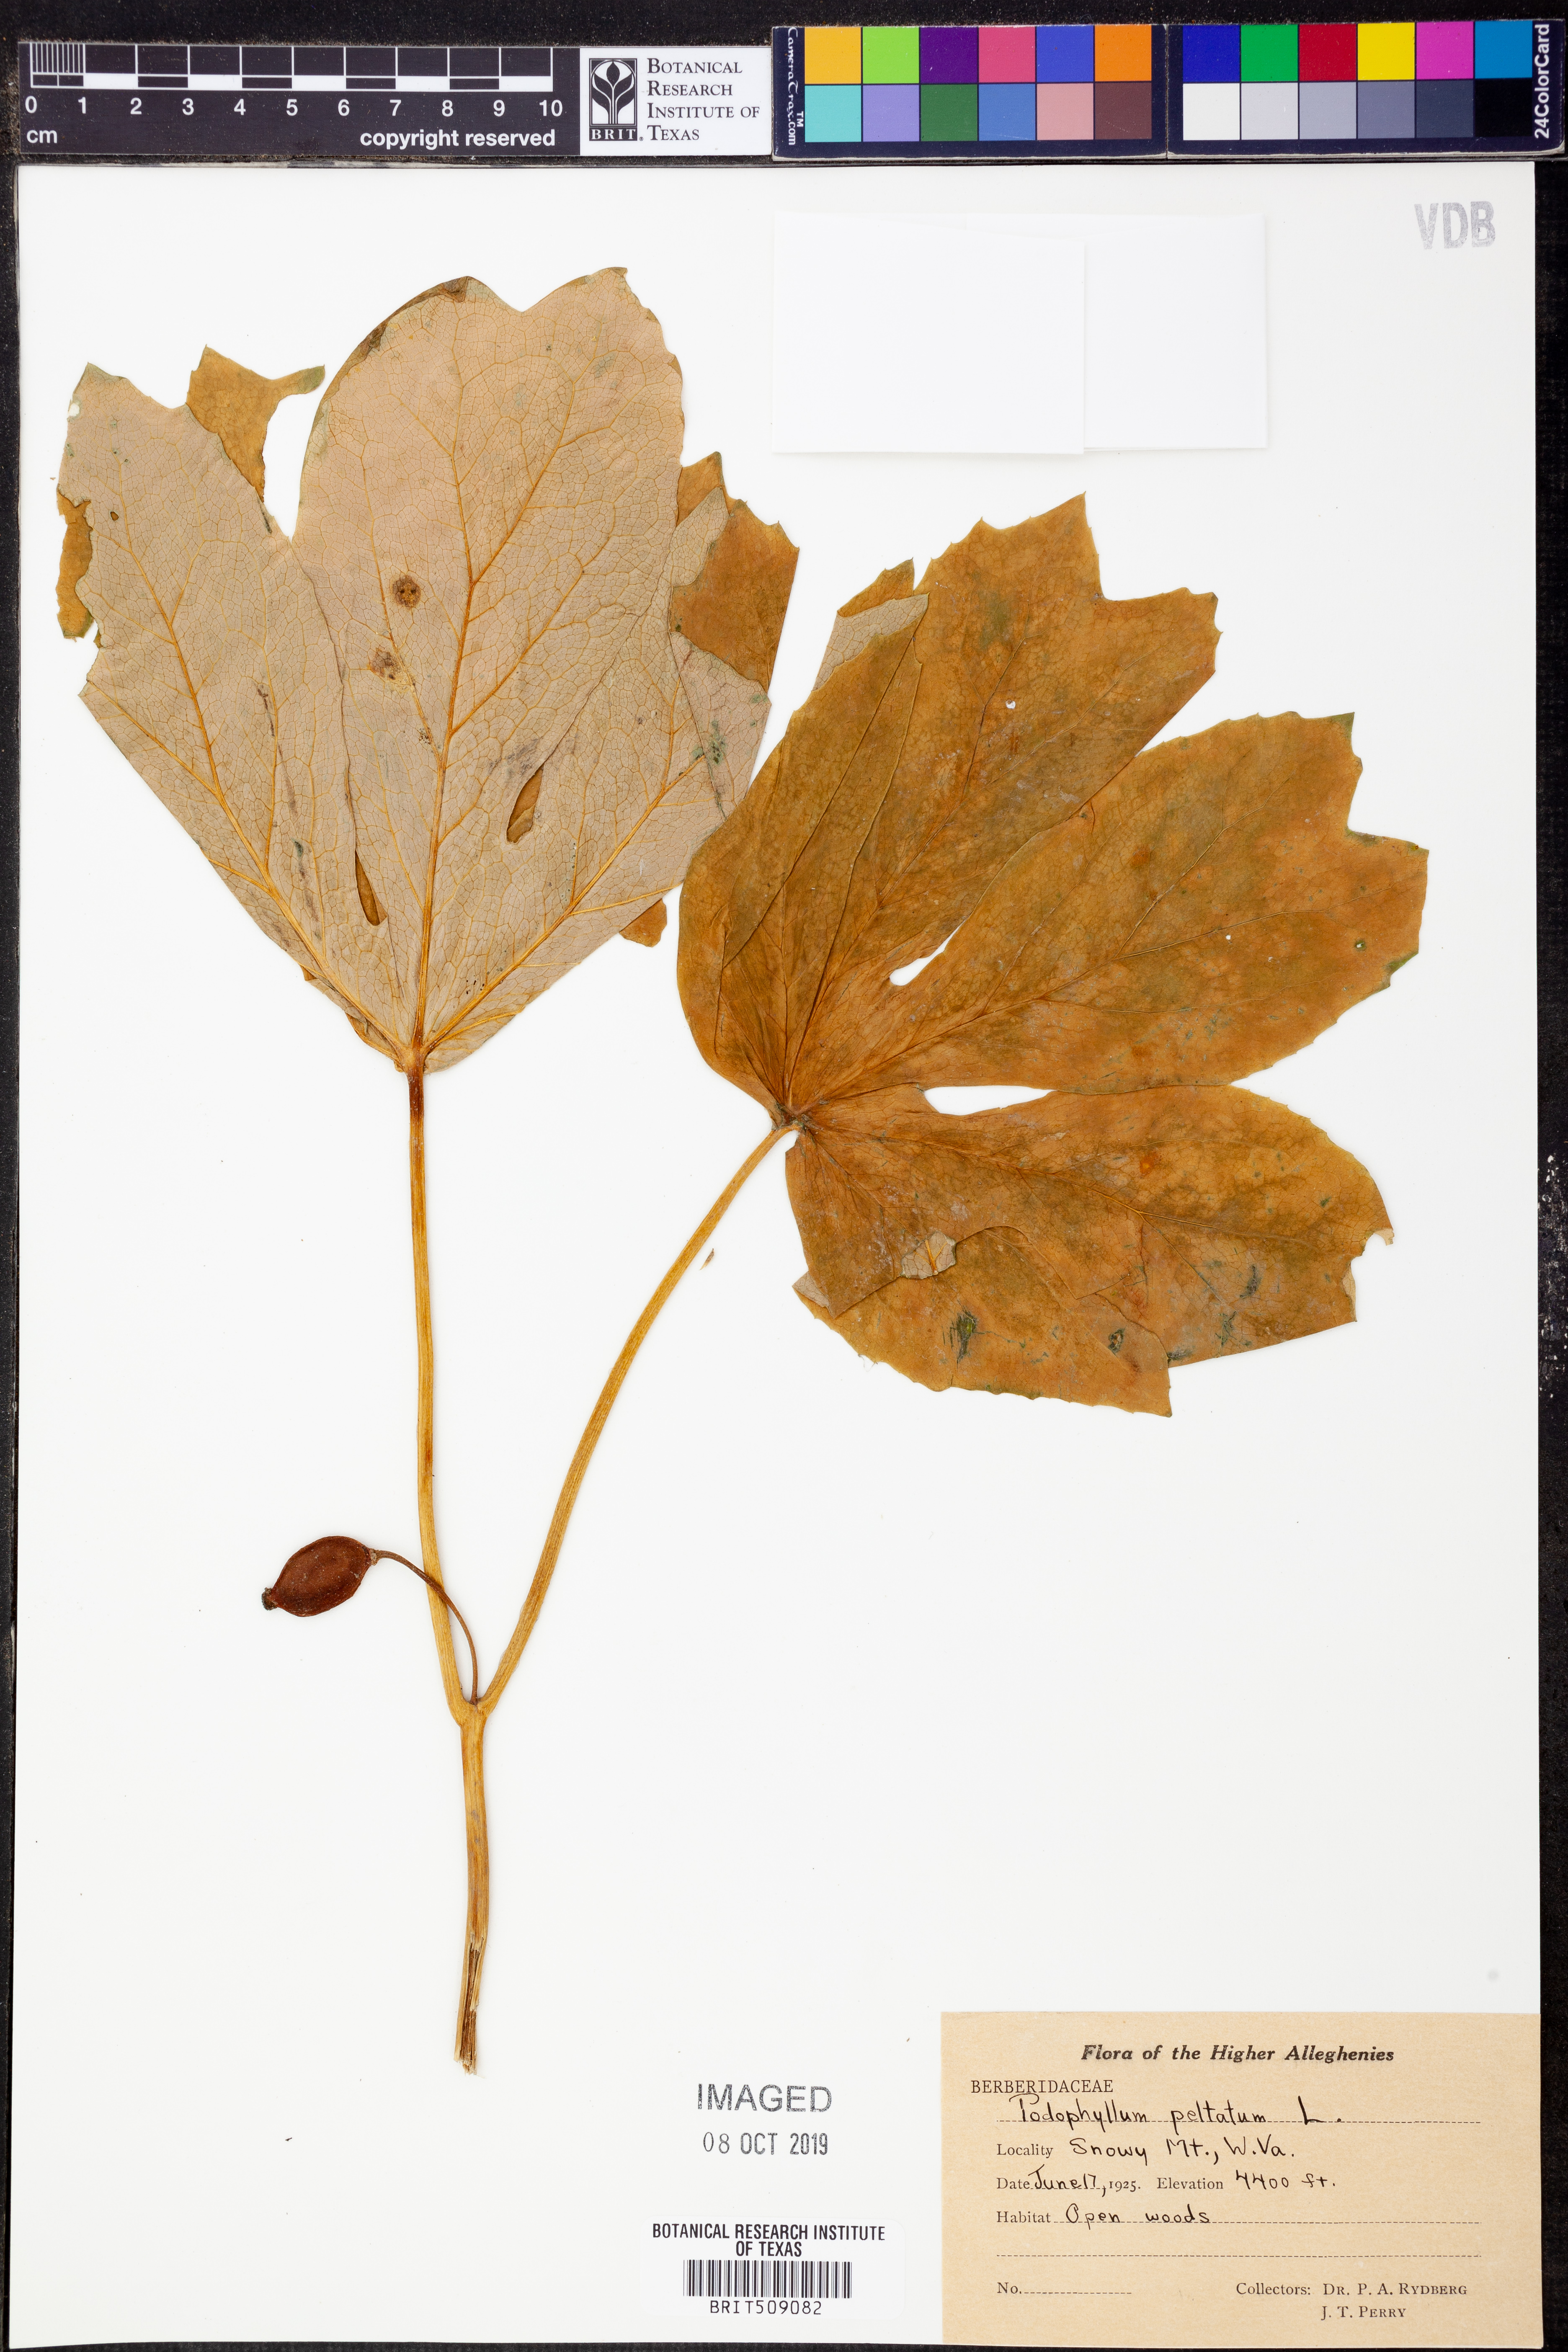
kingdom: Plantae
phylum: Tracheophyta
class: Magnoliopsida
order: Ranunculales
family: Berberidaceae
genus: Podophyllum
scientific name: Podophyllum peltatum
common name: Wild mandrake
